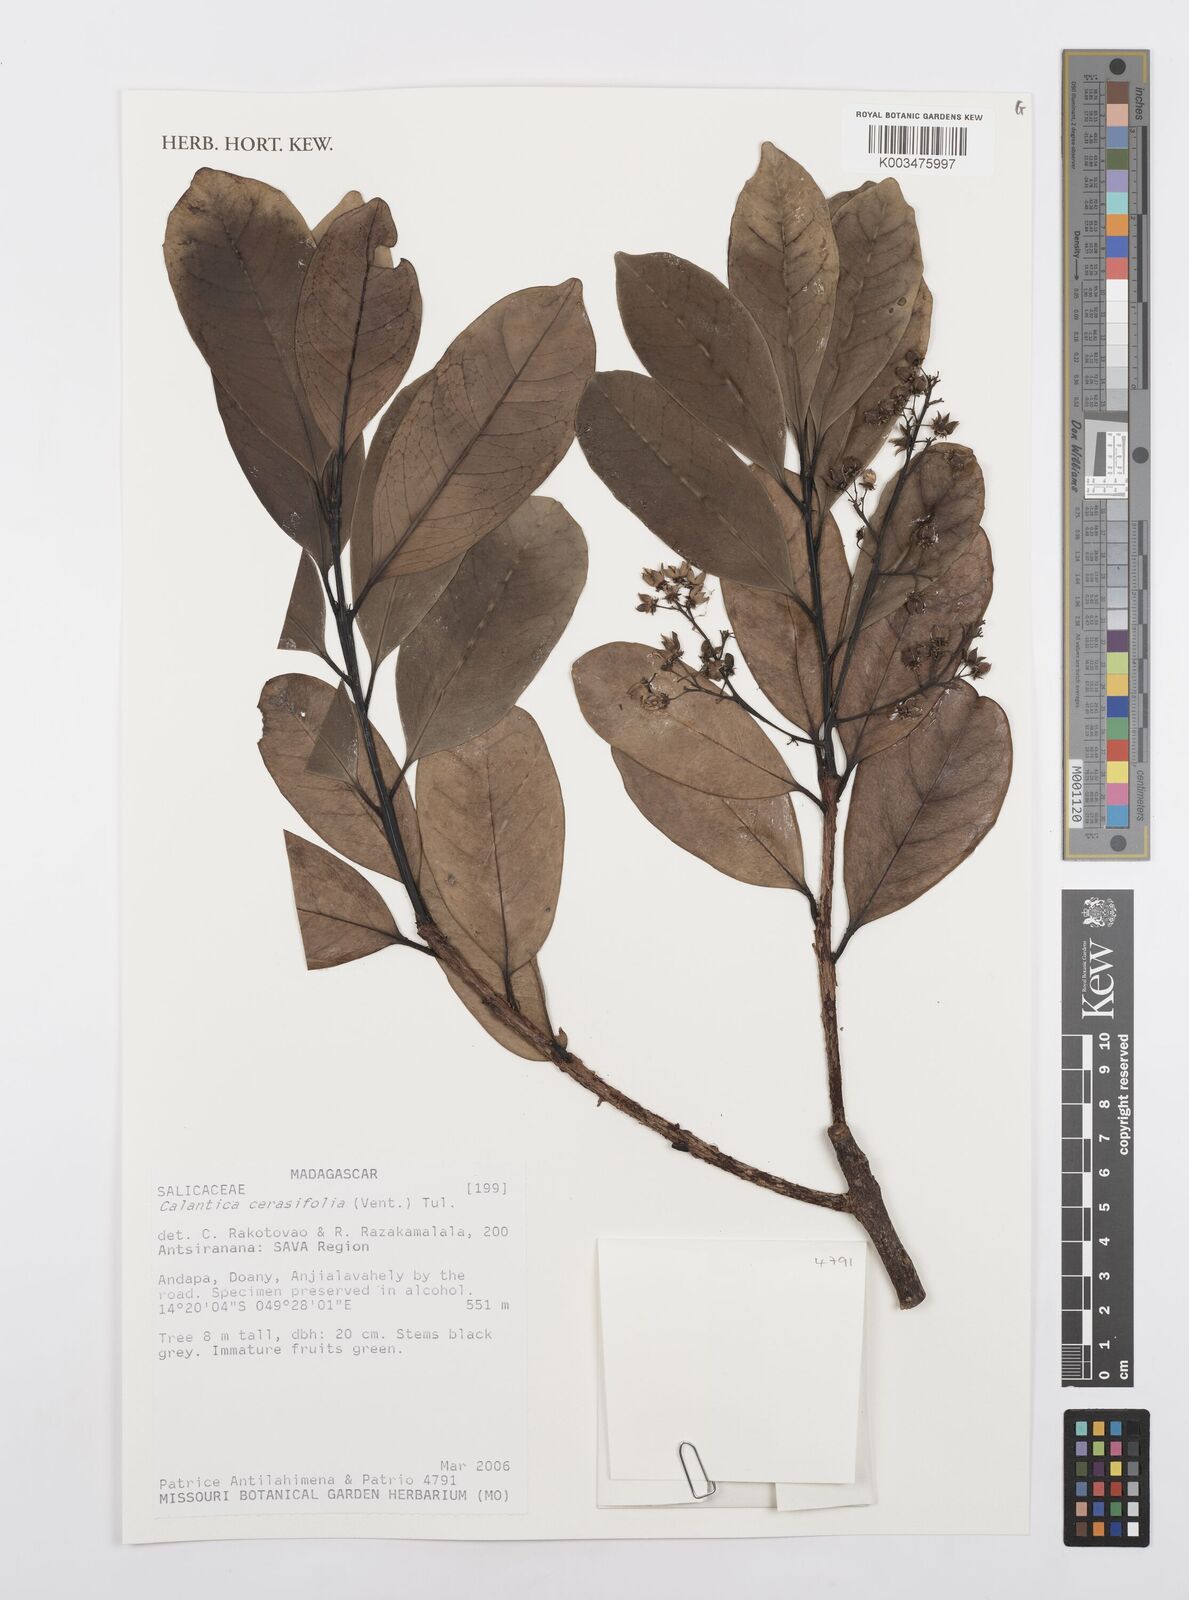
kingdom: Plantae
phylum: Tracheophyta
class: Magnoliopsida
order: Malpighiales
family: Salicaceae
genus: Calantica
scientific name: Calantica cerasifolia
